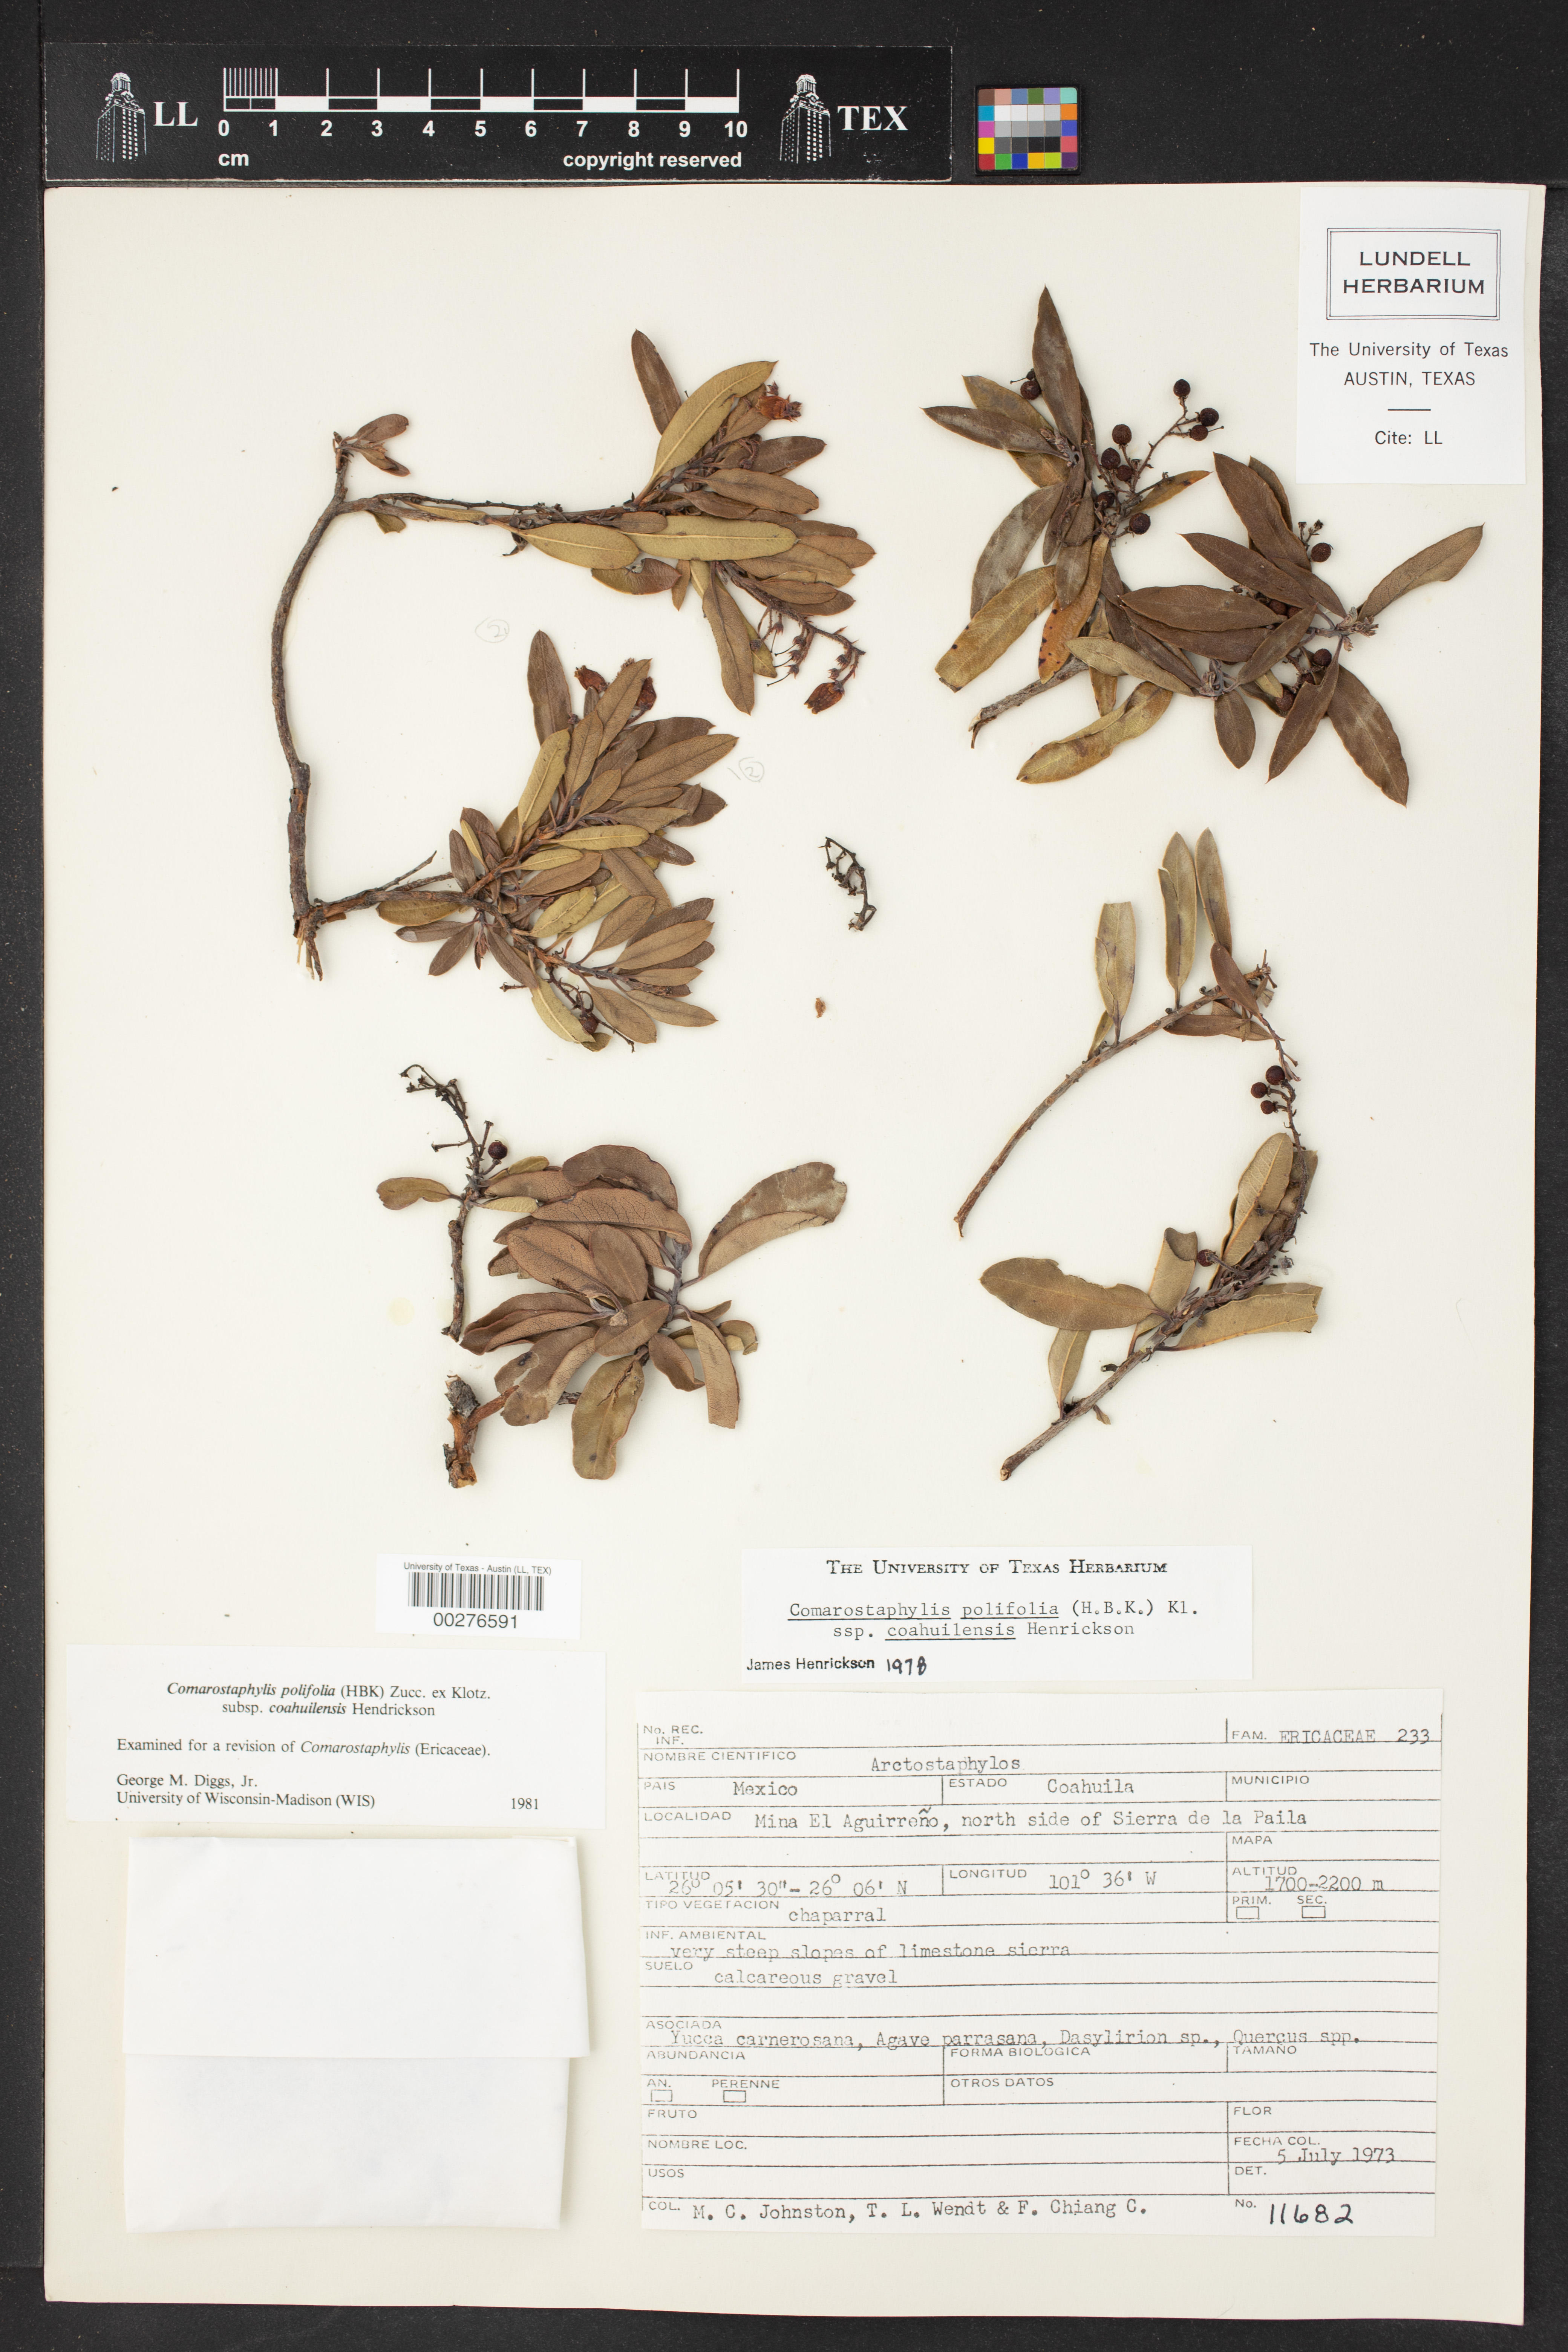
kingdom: Plantae
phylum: Tracheophyta
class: Magnoliopsida
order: Ericales
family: Ericaceae
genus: Comarostaphylis
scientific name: Comarostaphylis polifolia
